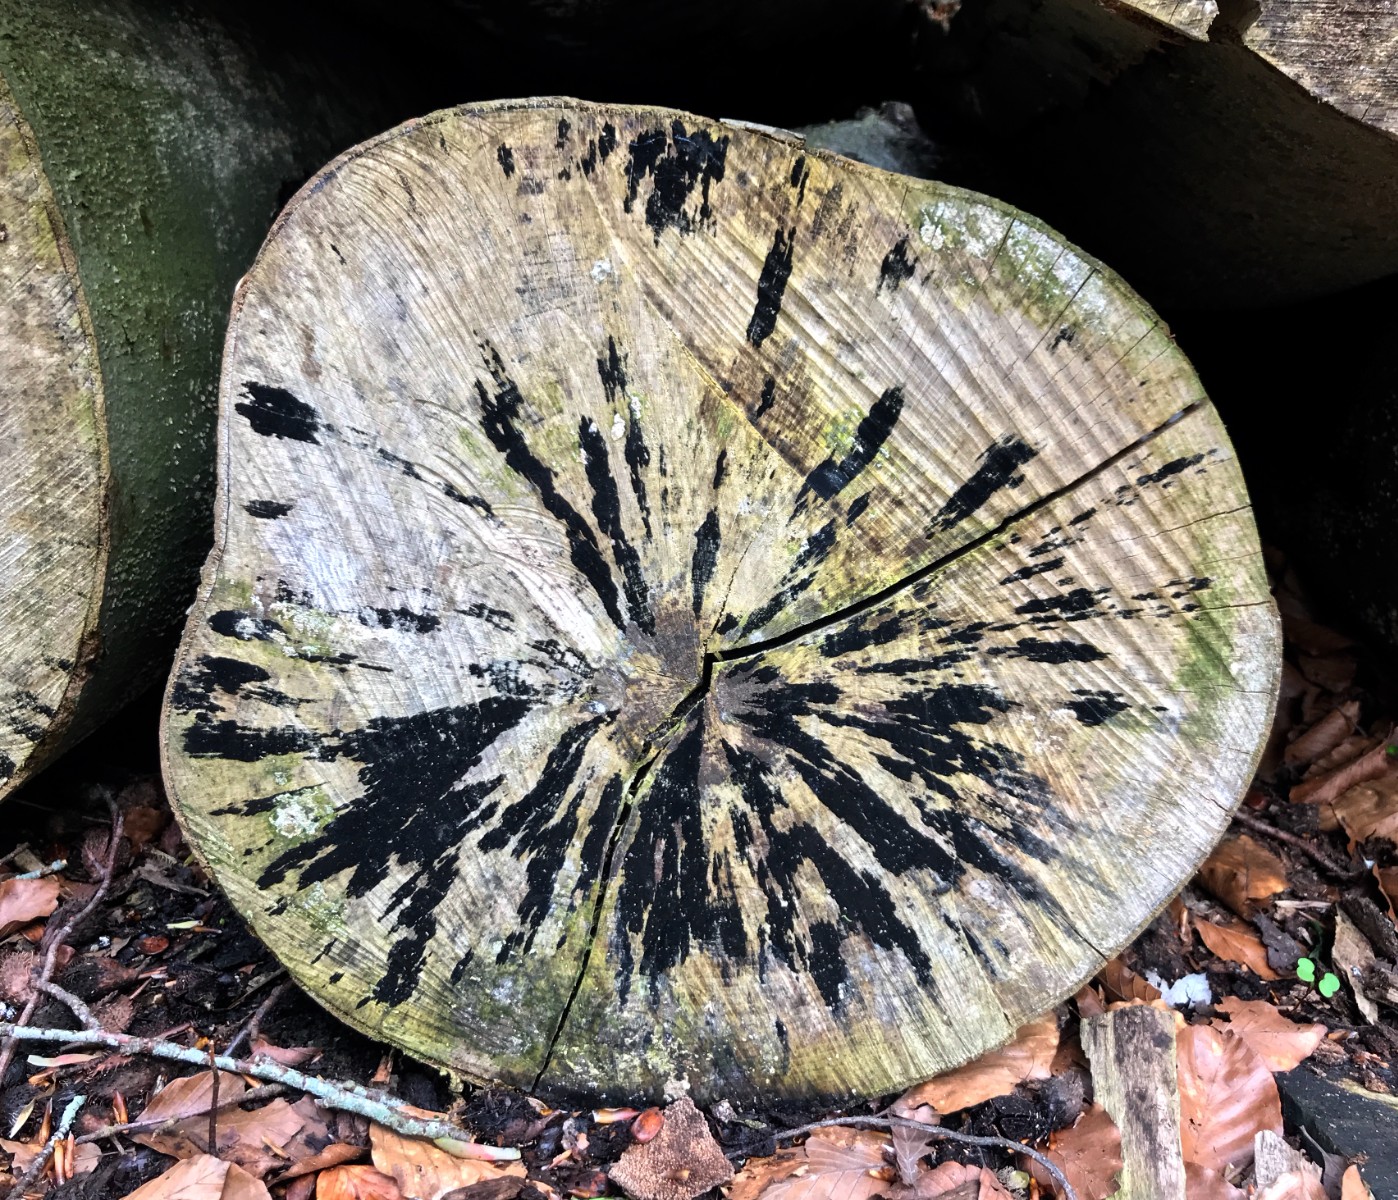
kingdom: Fungi
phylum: Ascomycota
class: Leotiomycetes
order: Helotiales
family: Helotiaceae
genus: Bispora
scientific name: Bispora pallescens
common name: måtte-snitskive
